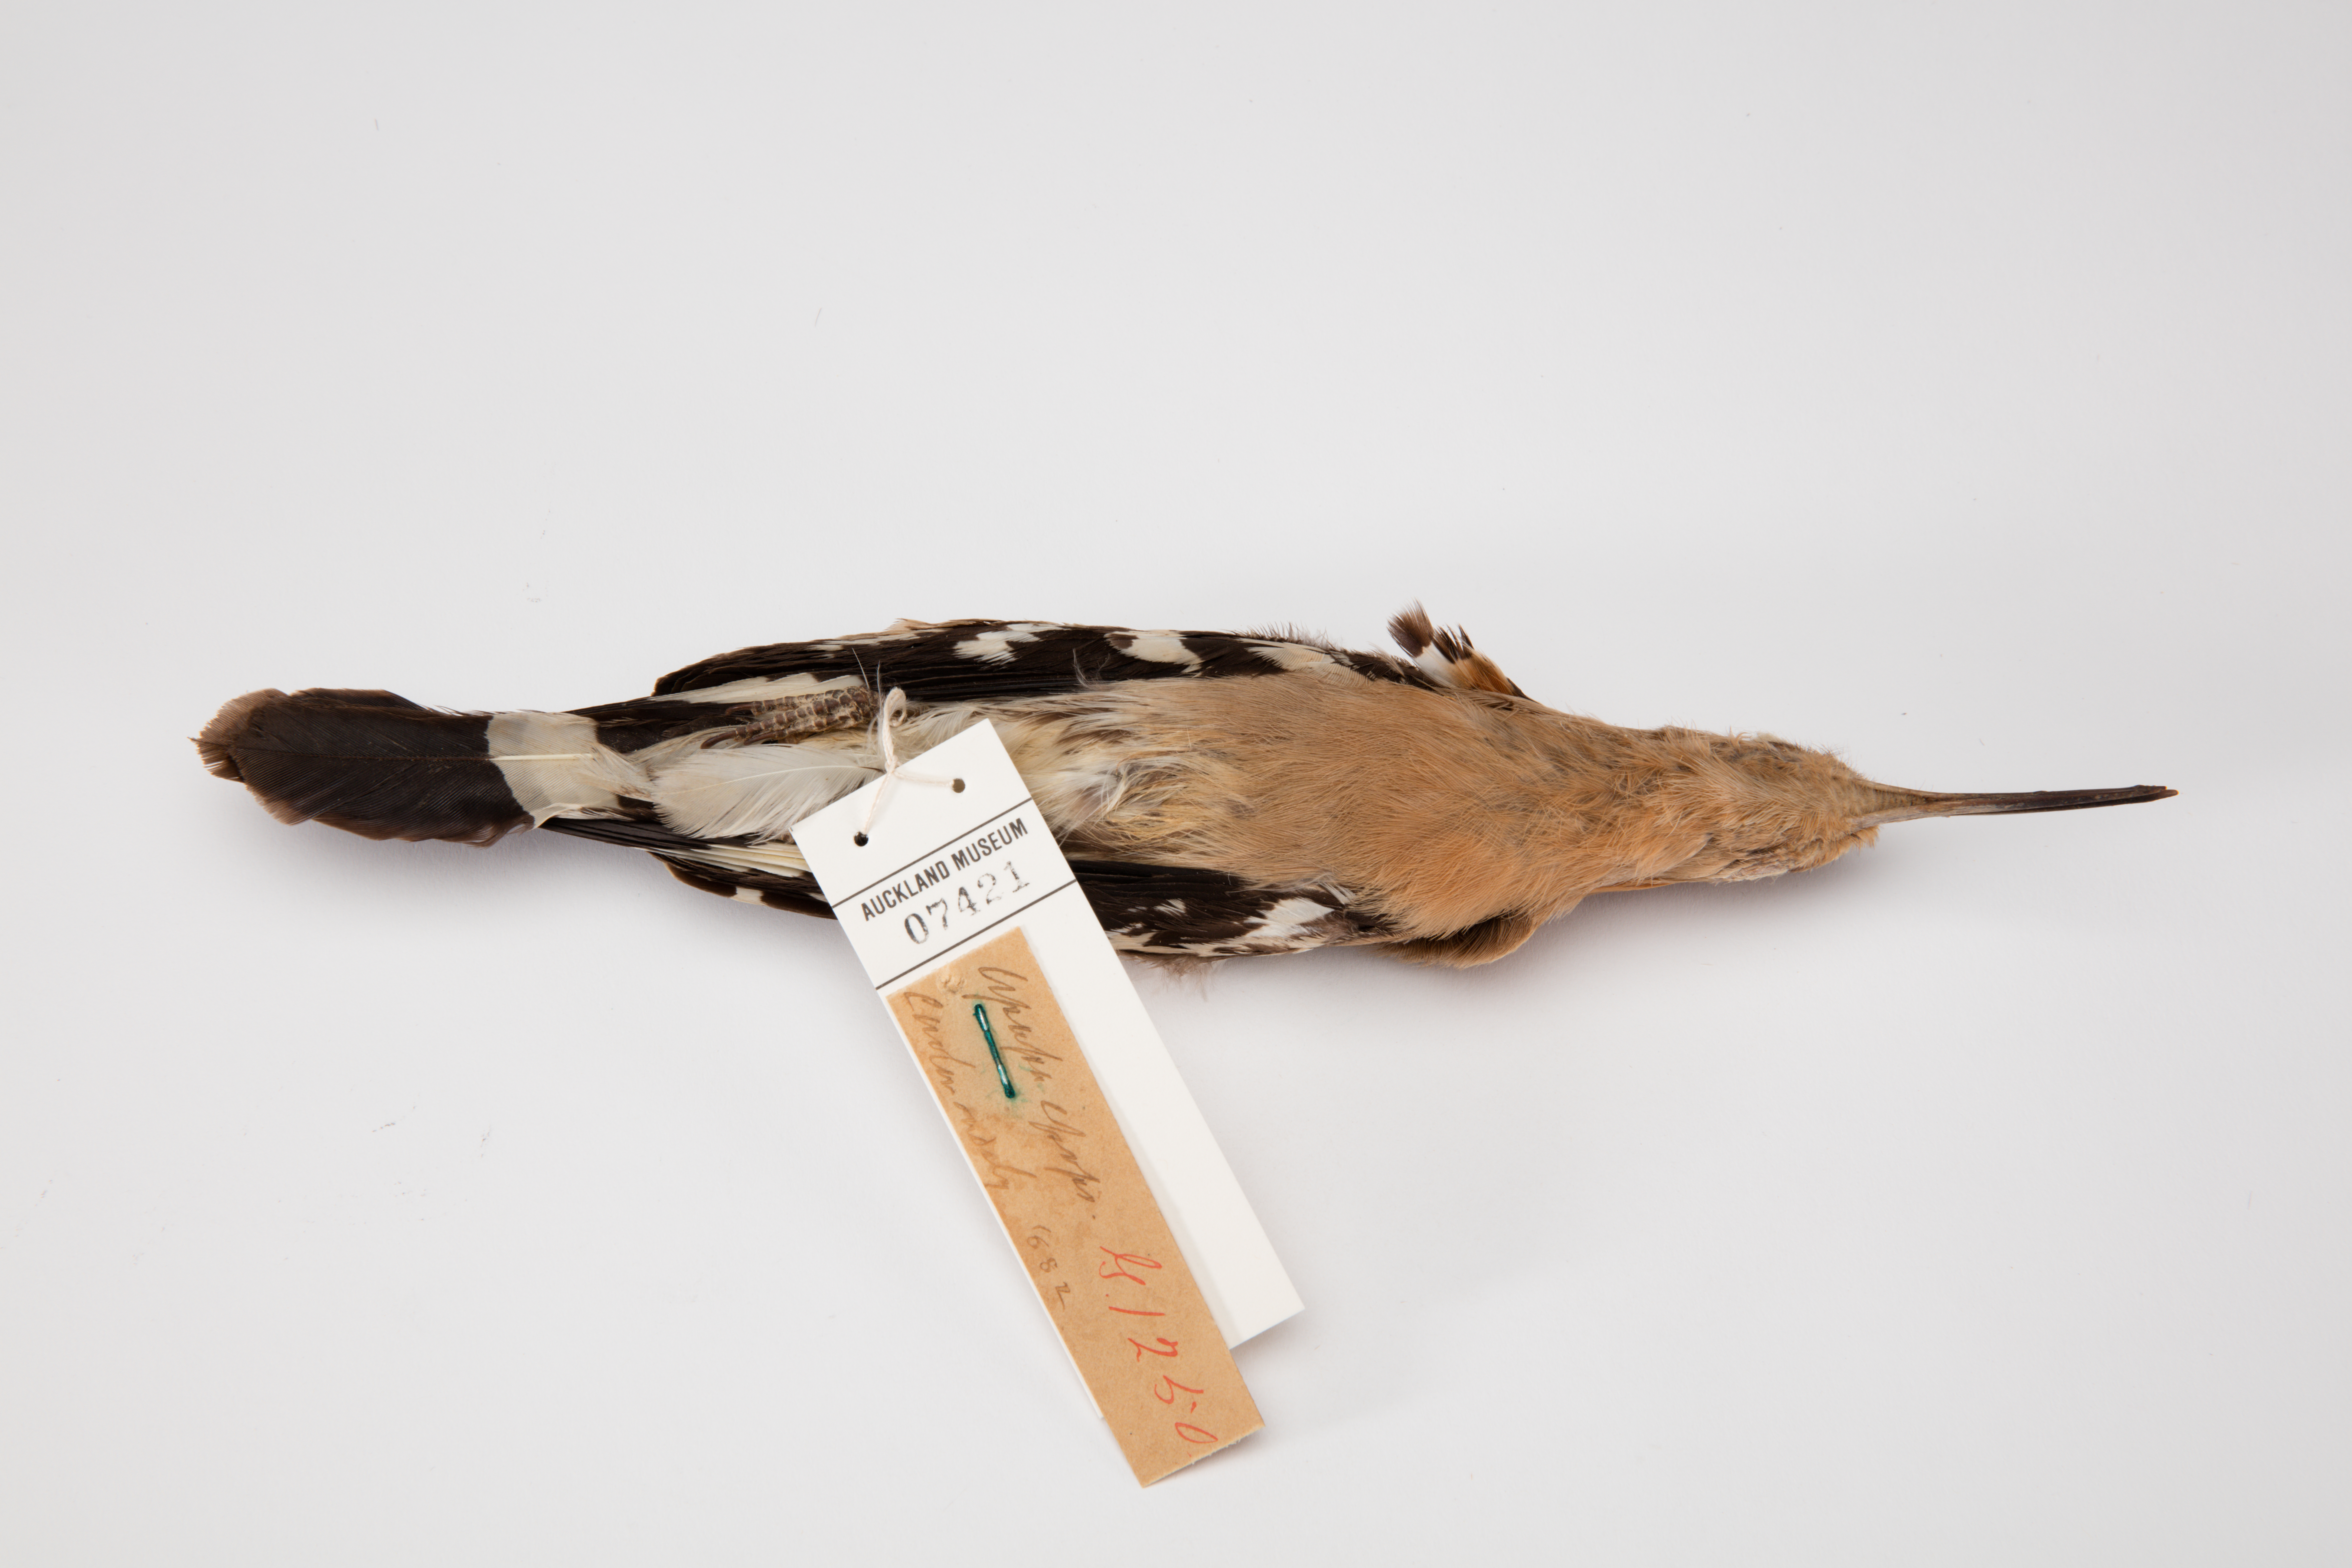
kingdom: Animalia
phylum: Chordata
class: Aves
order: Bucerotiformes
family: Upupidae
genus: Upupa
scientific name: Upupa epops
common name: Eurasian hoopoe
